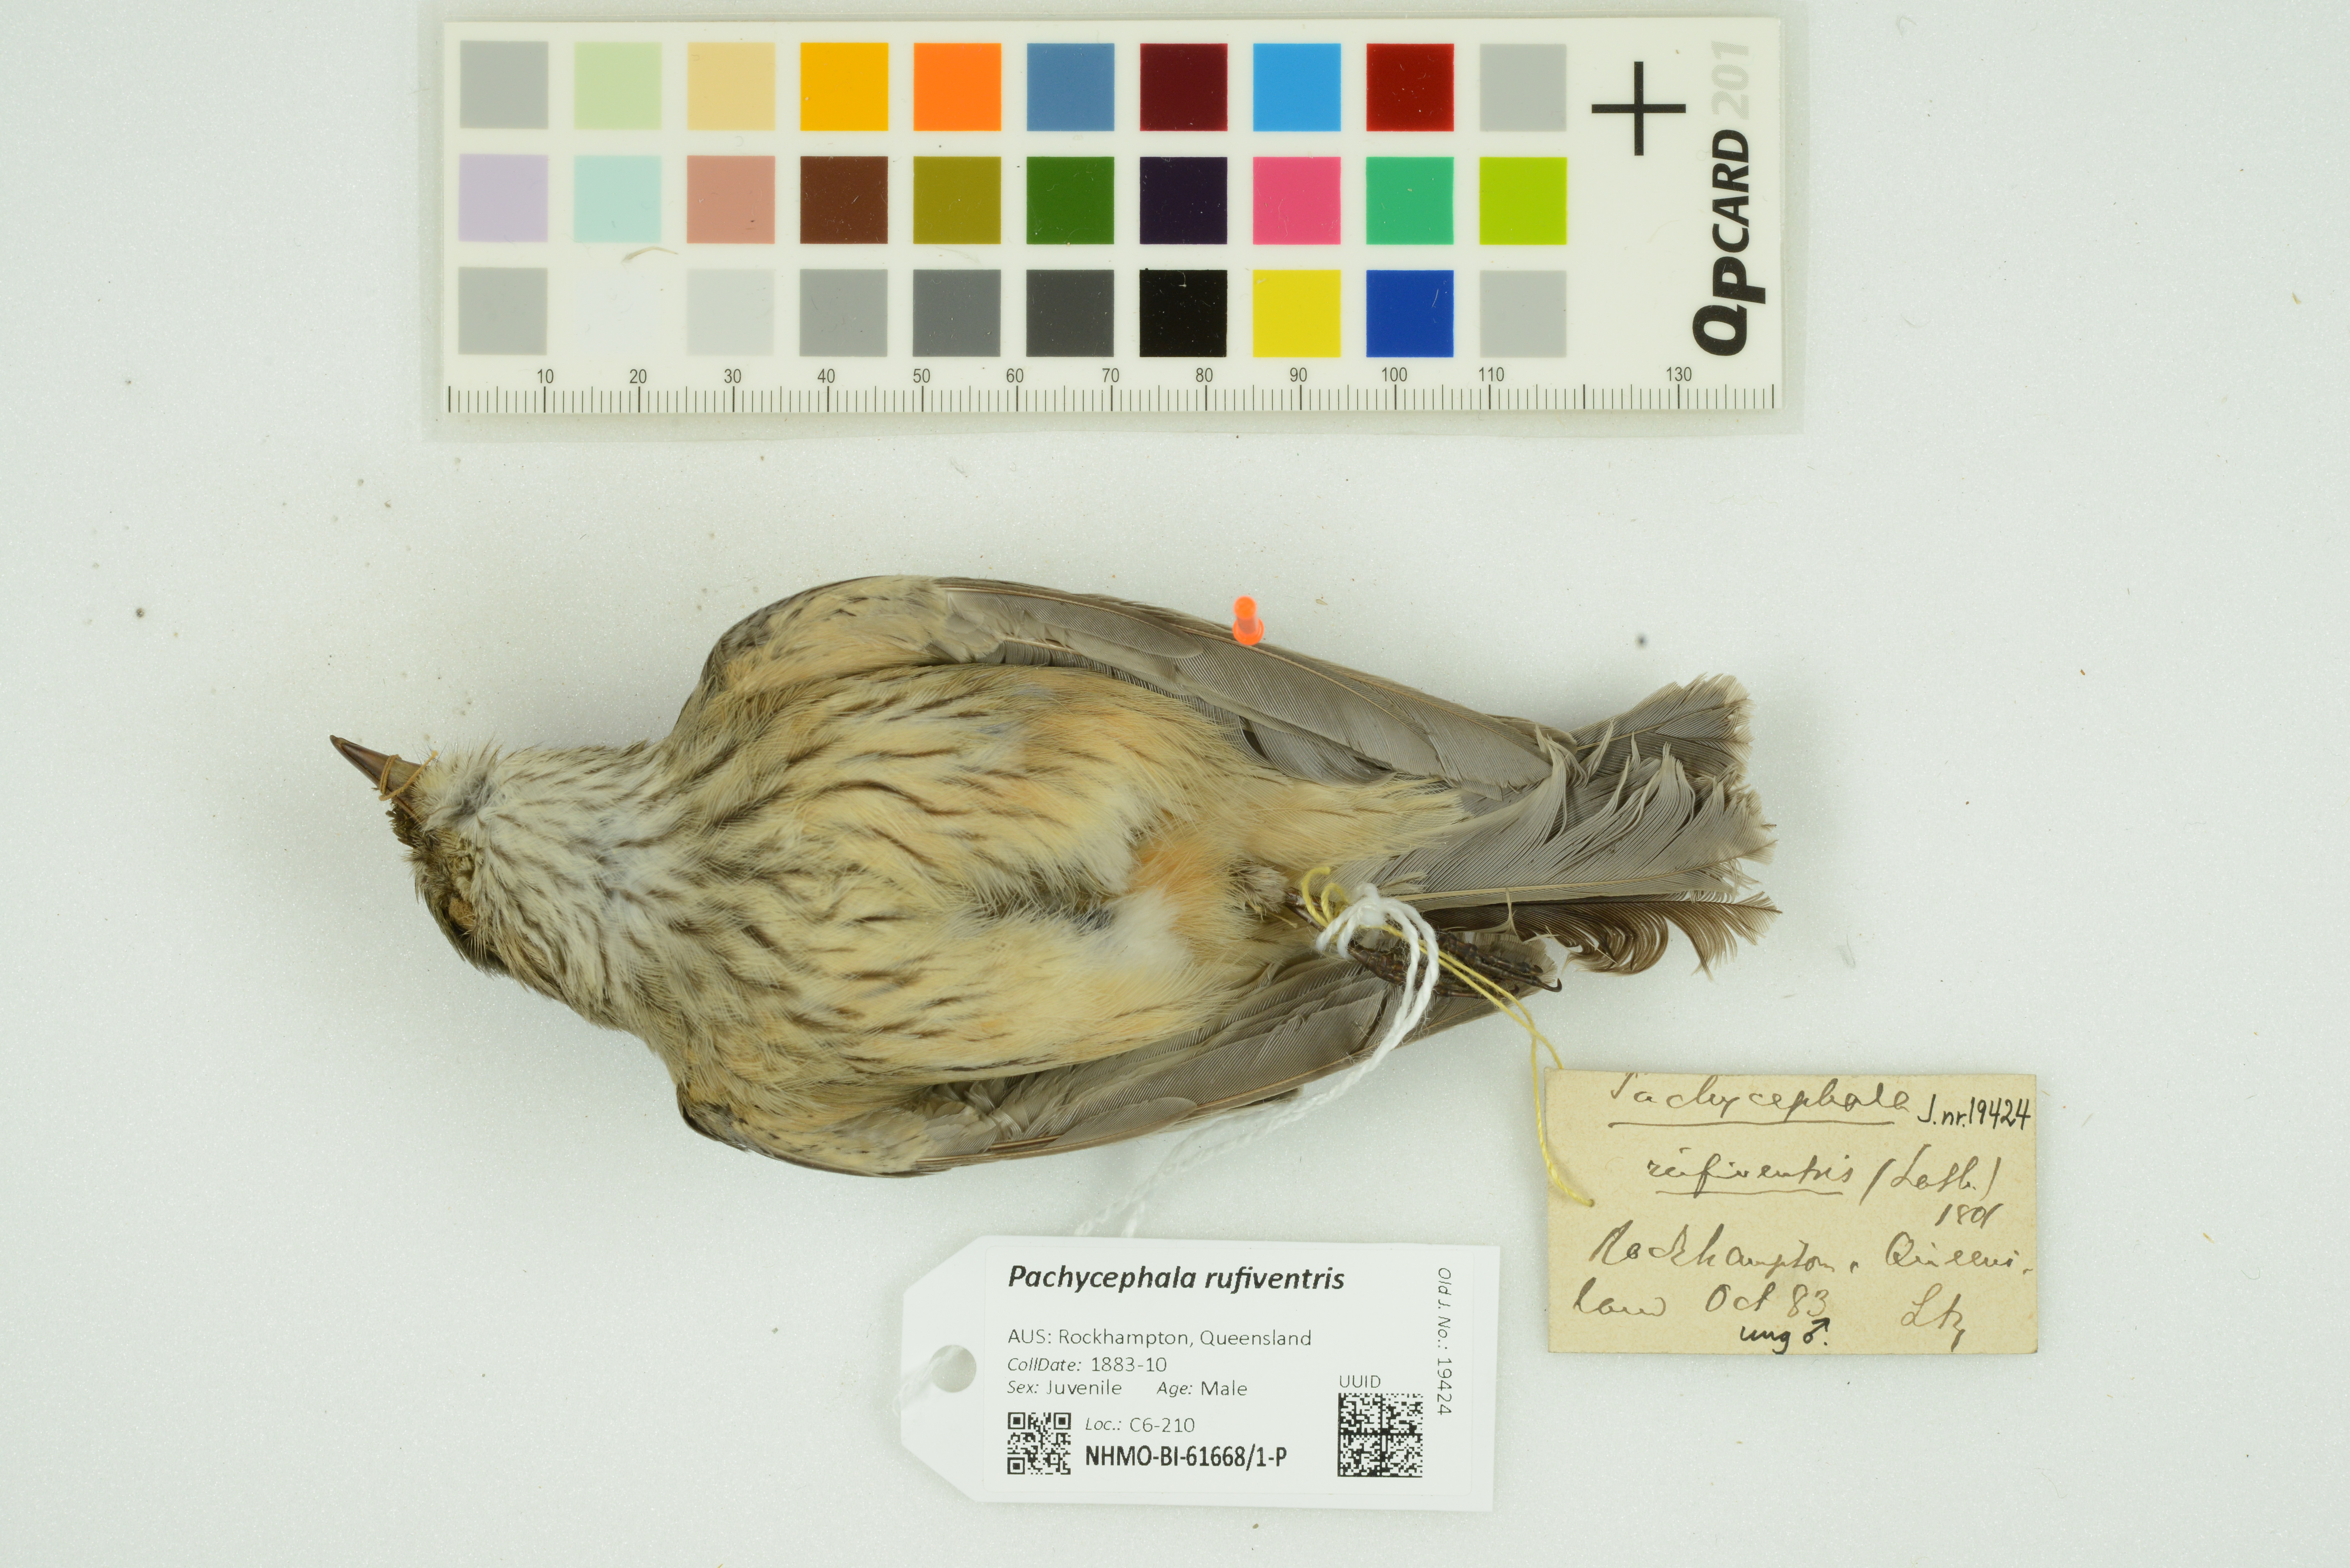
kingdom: Animalia
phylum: Chordata
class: Aves
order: Passeriformes
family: Pachycephalidae
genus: Pachycephala
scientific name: Pachycephala rufiventris
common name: Rufous whistler
